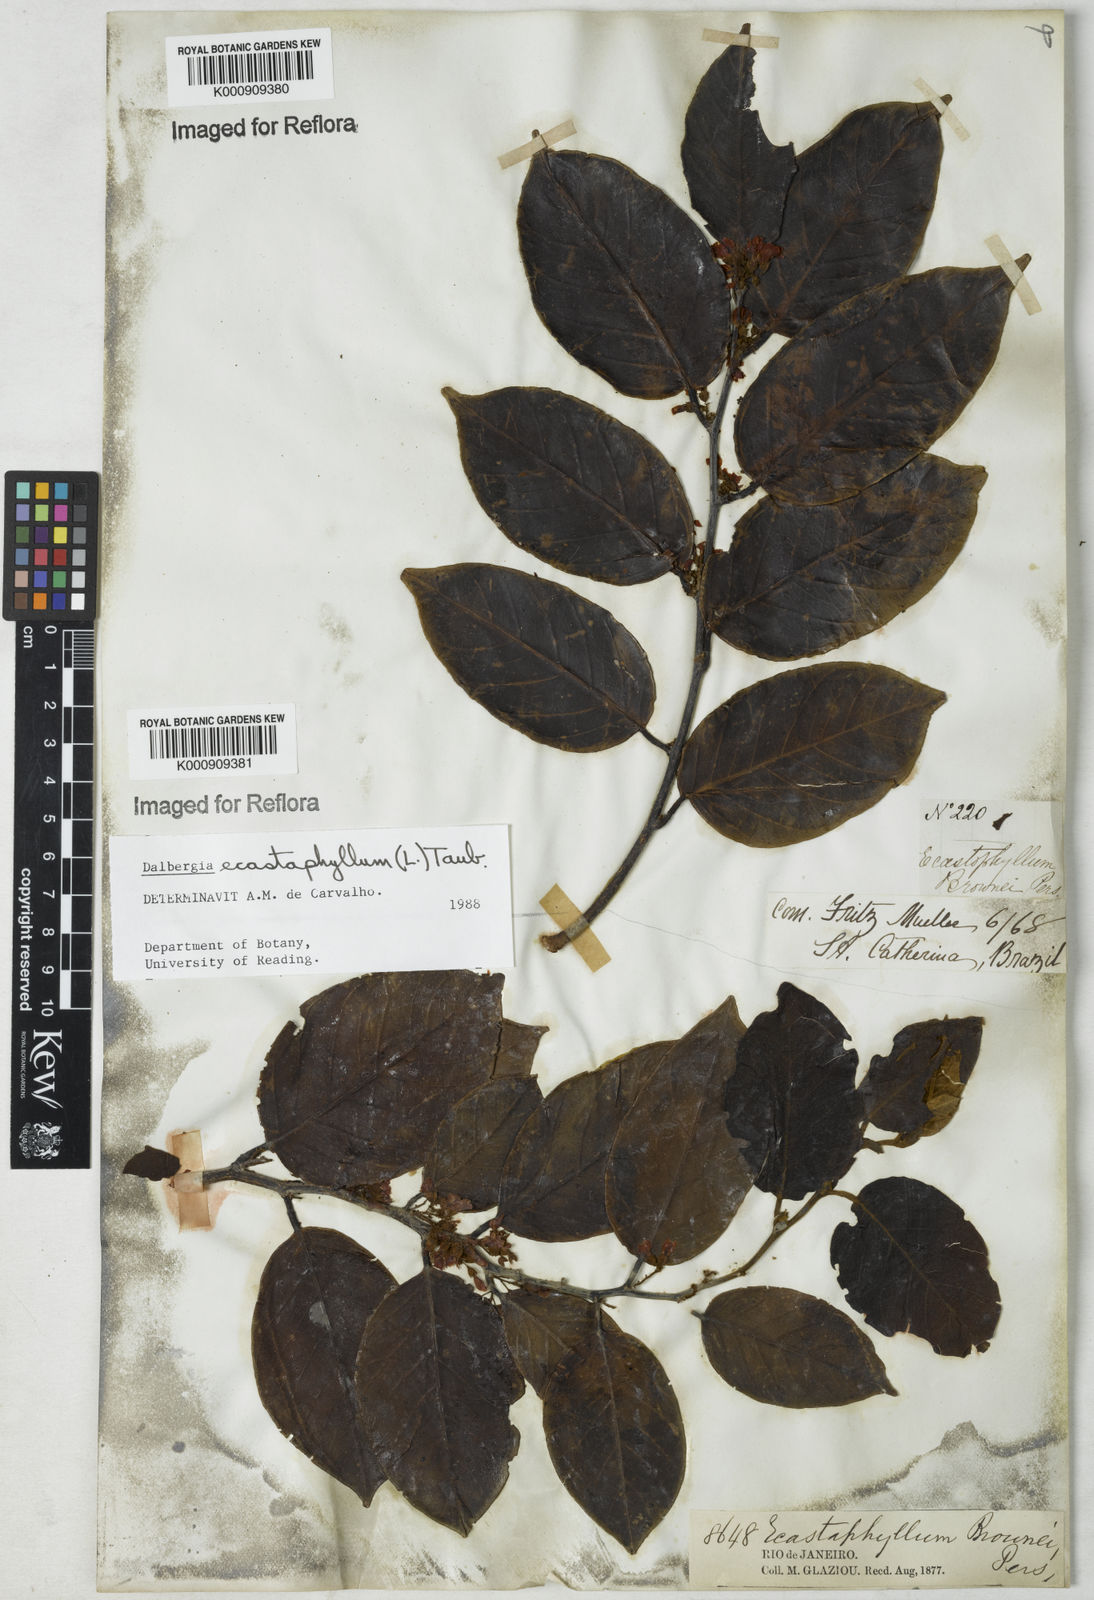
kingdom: Plantae
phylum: Tracheophyta
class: Magnoliopsida
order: Fabales
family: Fabaceae
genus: Dalbergia
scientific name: Dalbergia ecastaphyllum
